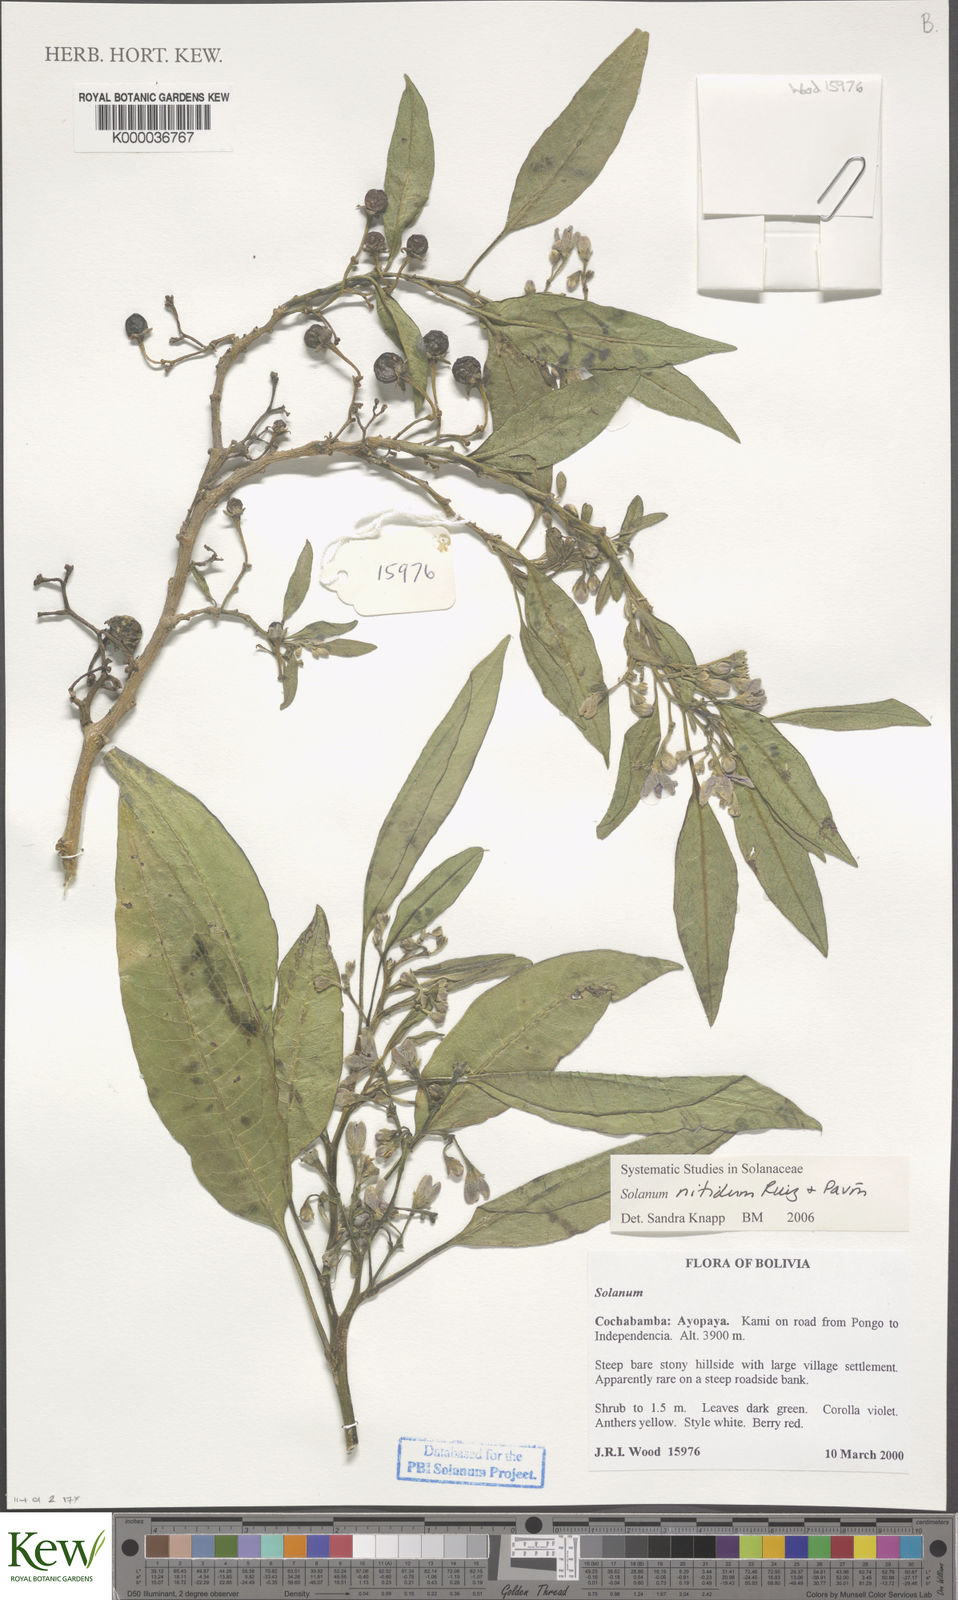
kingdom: Plantae
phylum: Tracheophyta
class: Magnoliopsida
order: Solanales
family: Solanaceae
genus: Solanum
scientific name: Solanum nitidum
